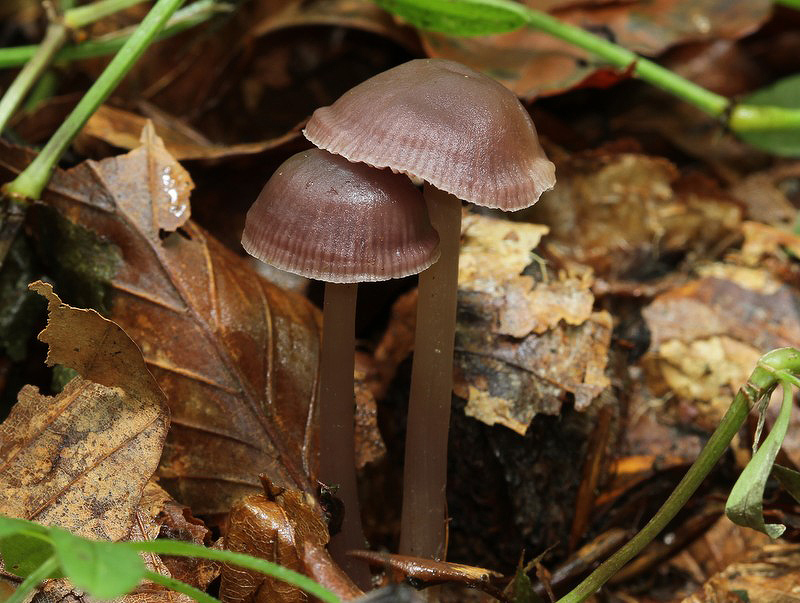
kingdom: Fungi
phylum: Basidiomycota
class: Agaricomycetes
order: Agaricales
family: Mycenaceae
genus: Prunulus
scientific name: Prunulus diosmus
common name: tobaks-huesvamp
